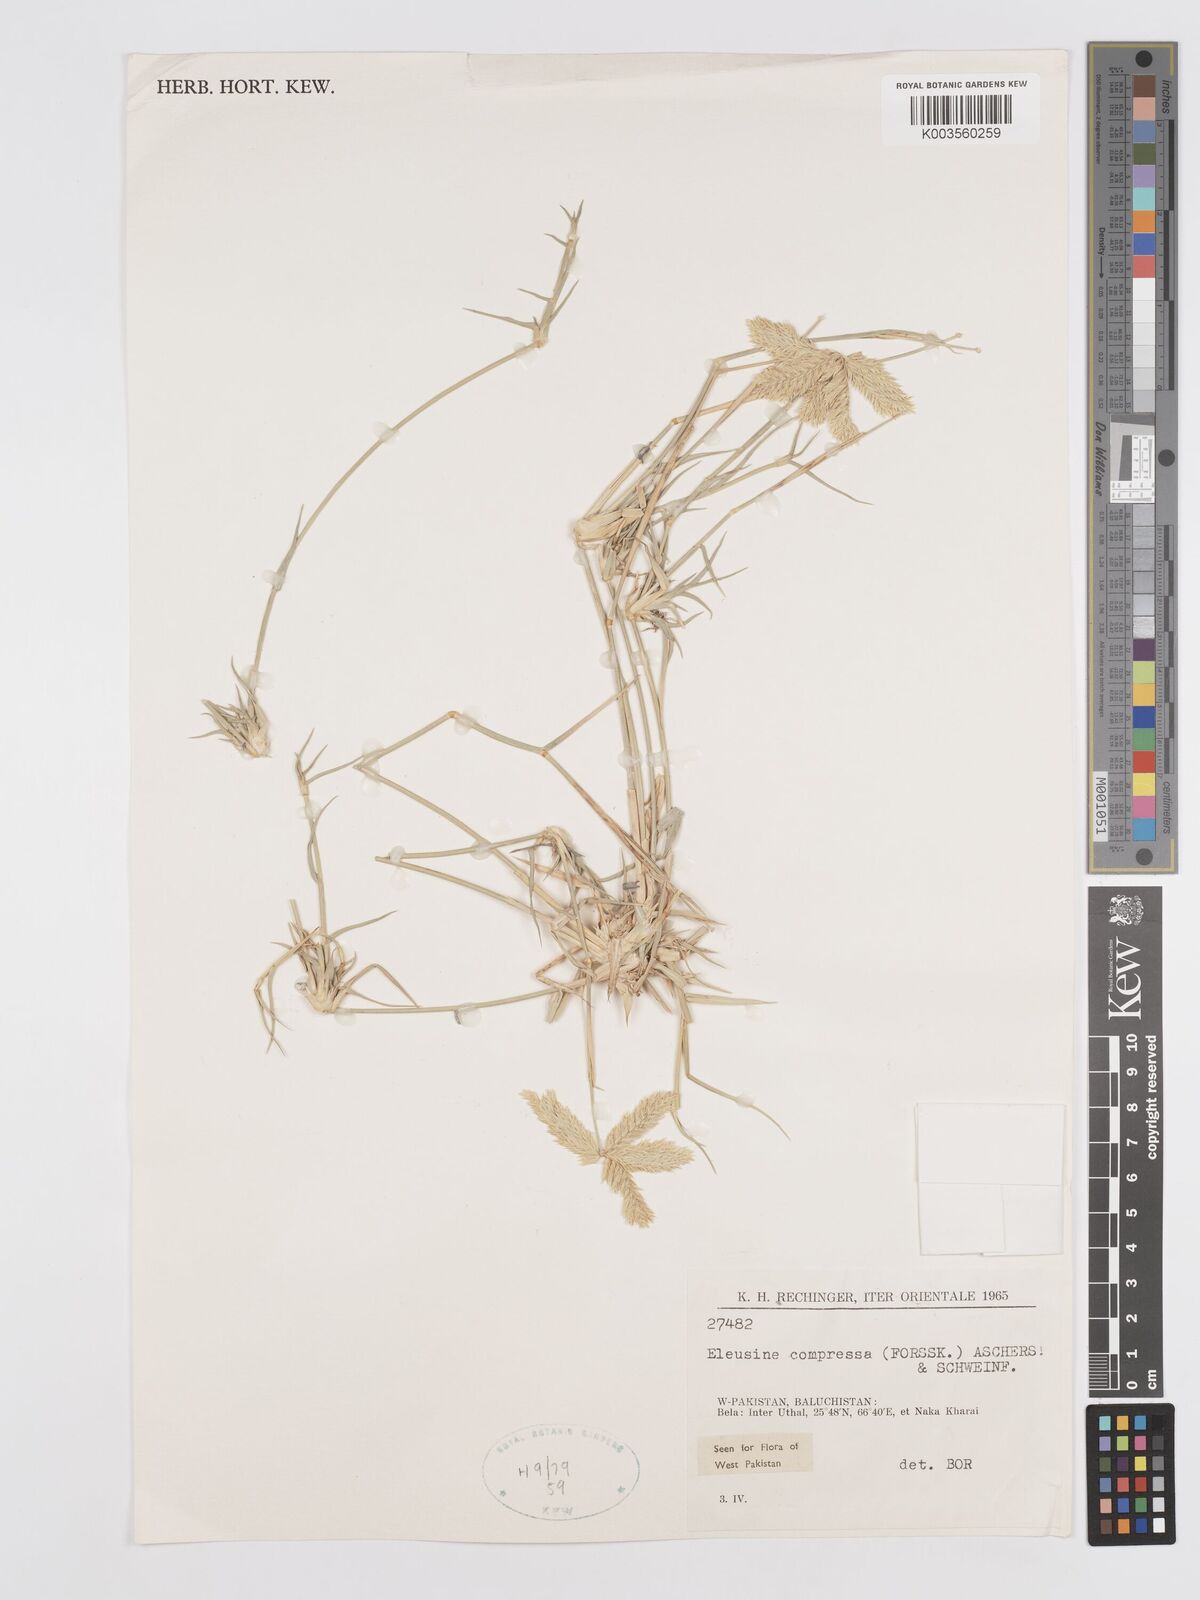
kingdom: Plantae
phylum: Tracheophyta
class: Liliopsida
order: Poales
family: Poaceae
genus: Chloris
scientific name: Chloris flagellifera
